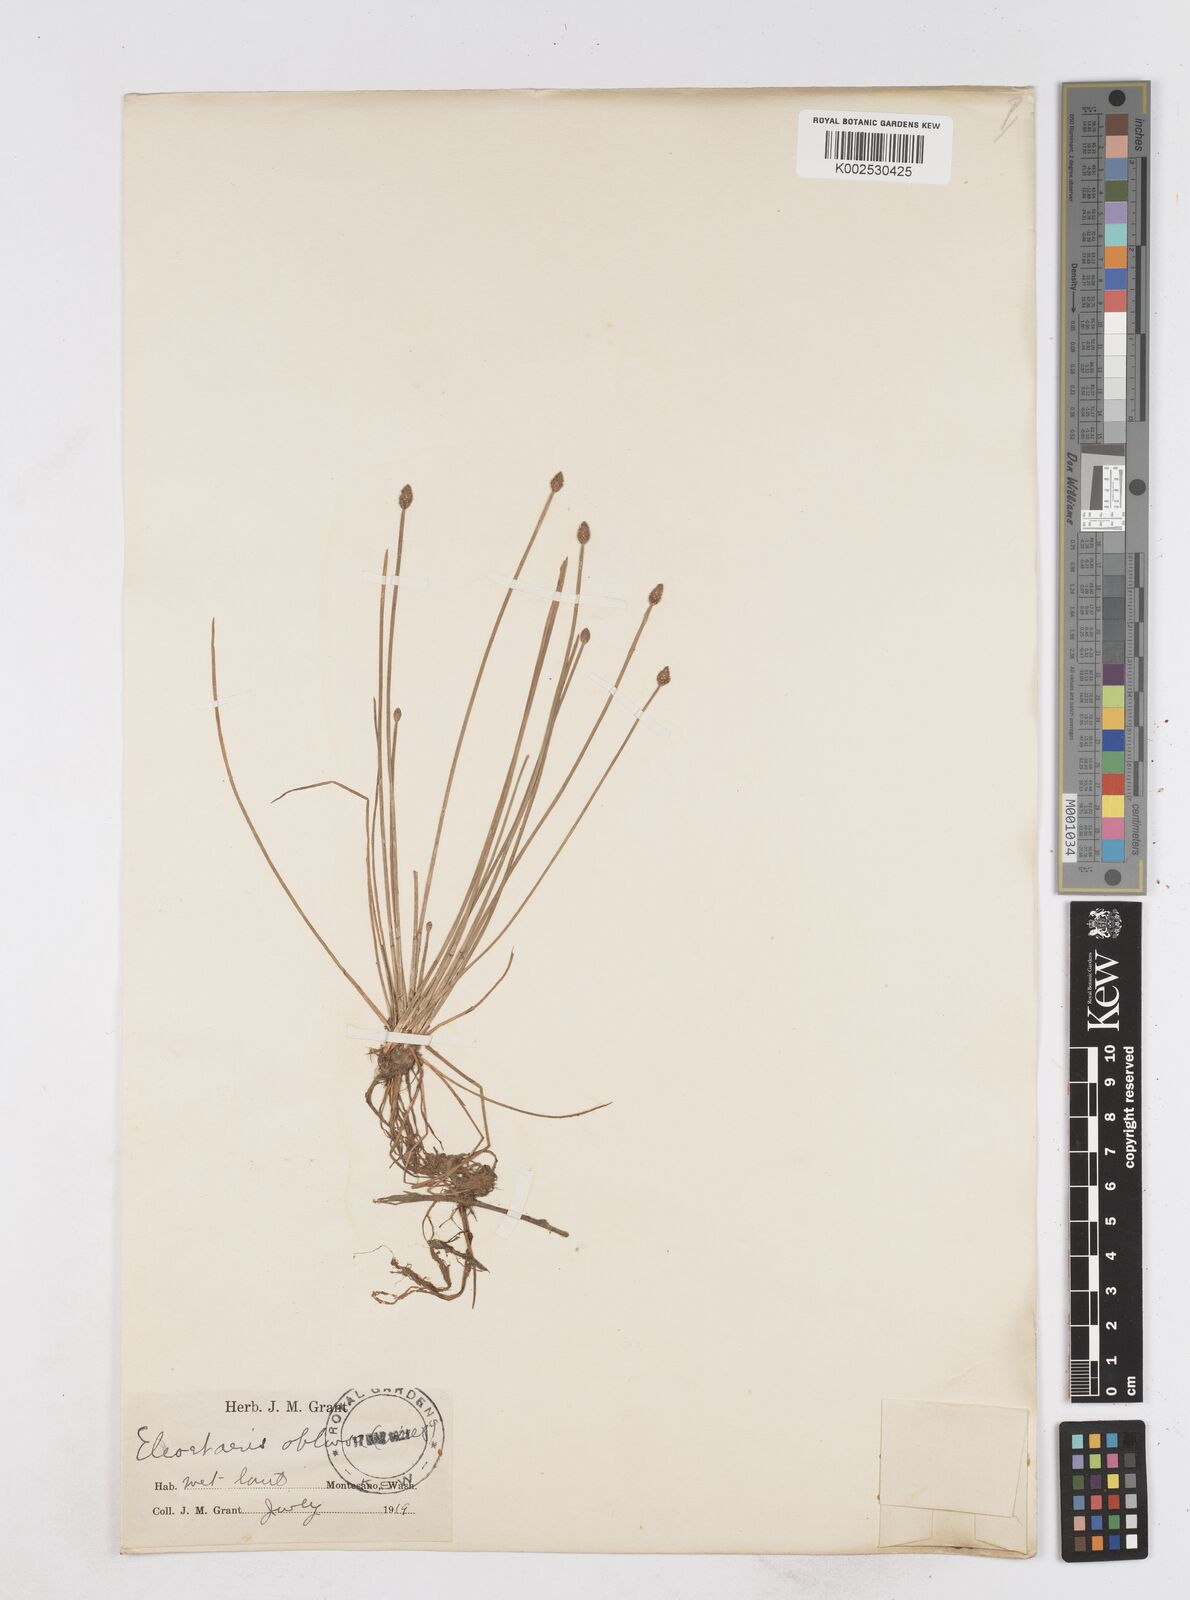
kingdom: Plantae
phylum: Tracheophyta
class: Liliopsida
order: Poales
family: Cyperaceae
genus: Eleocharis
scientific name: Eleocharis
